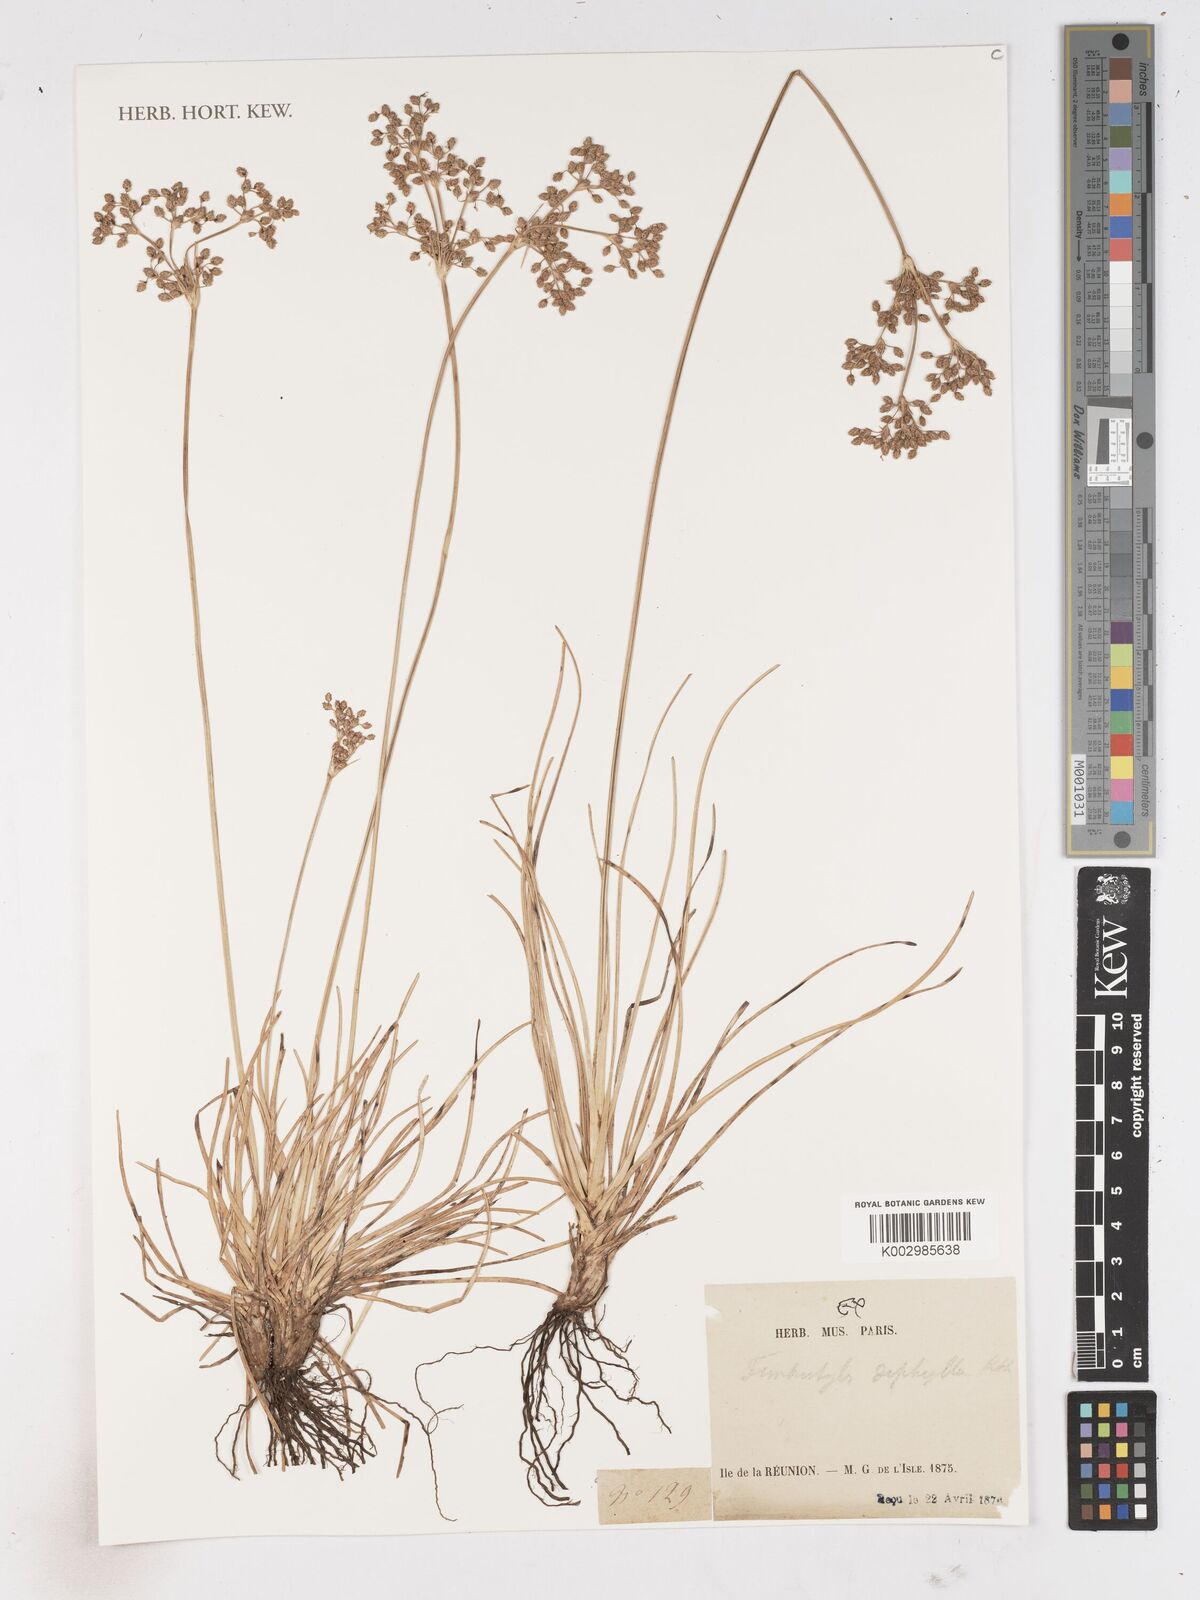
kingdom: Plantae
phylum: Tracheophyta
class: Liliopsida
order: Poales
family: Cyperaceae
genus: Fimbristylis
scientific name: Fimbristylis littoralis
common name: Fimbry
